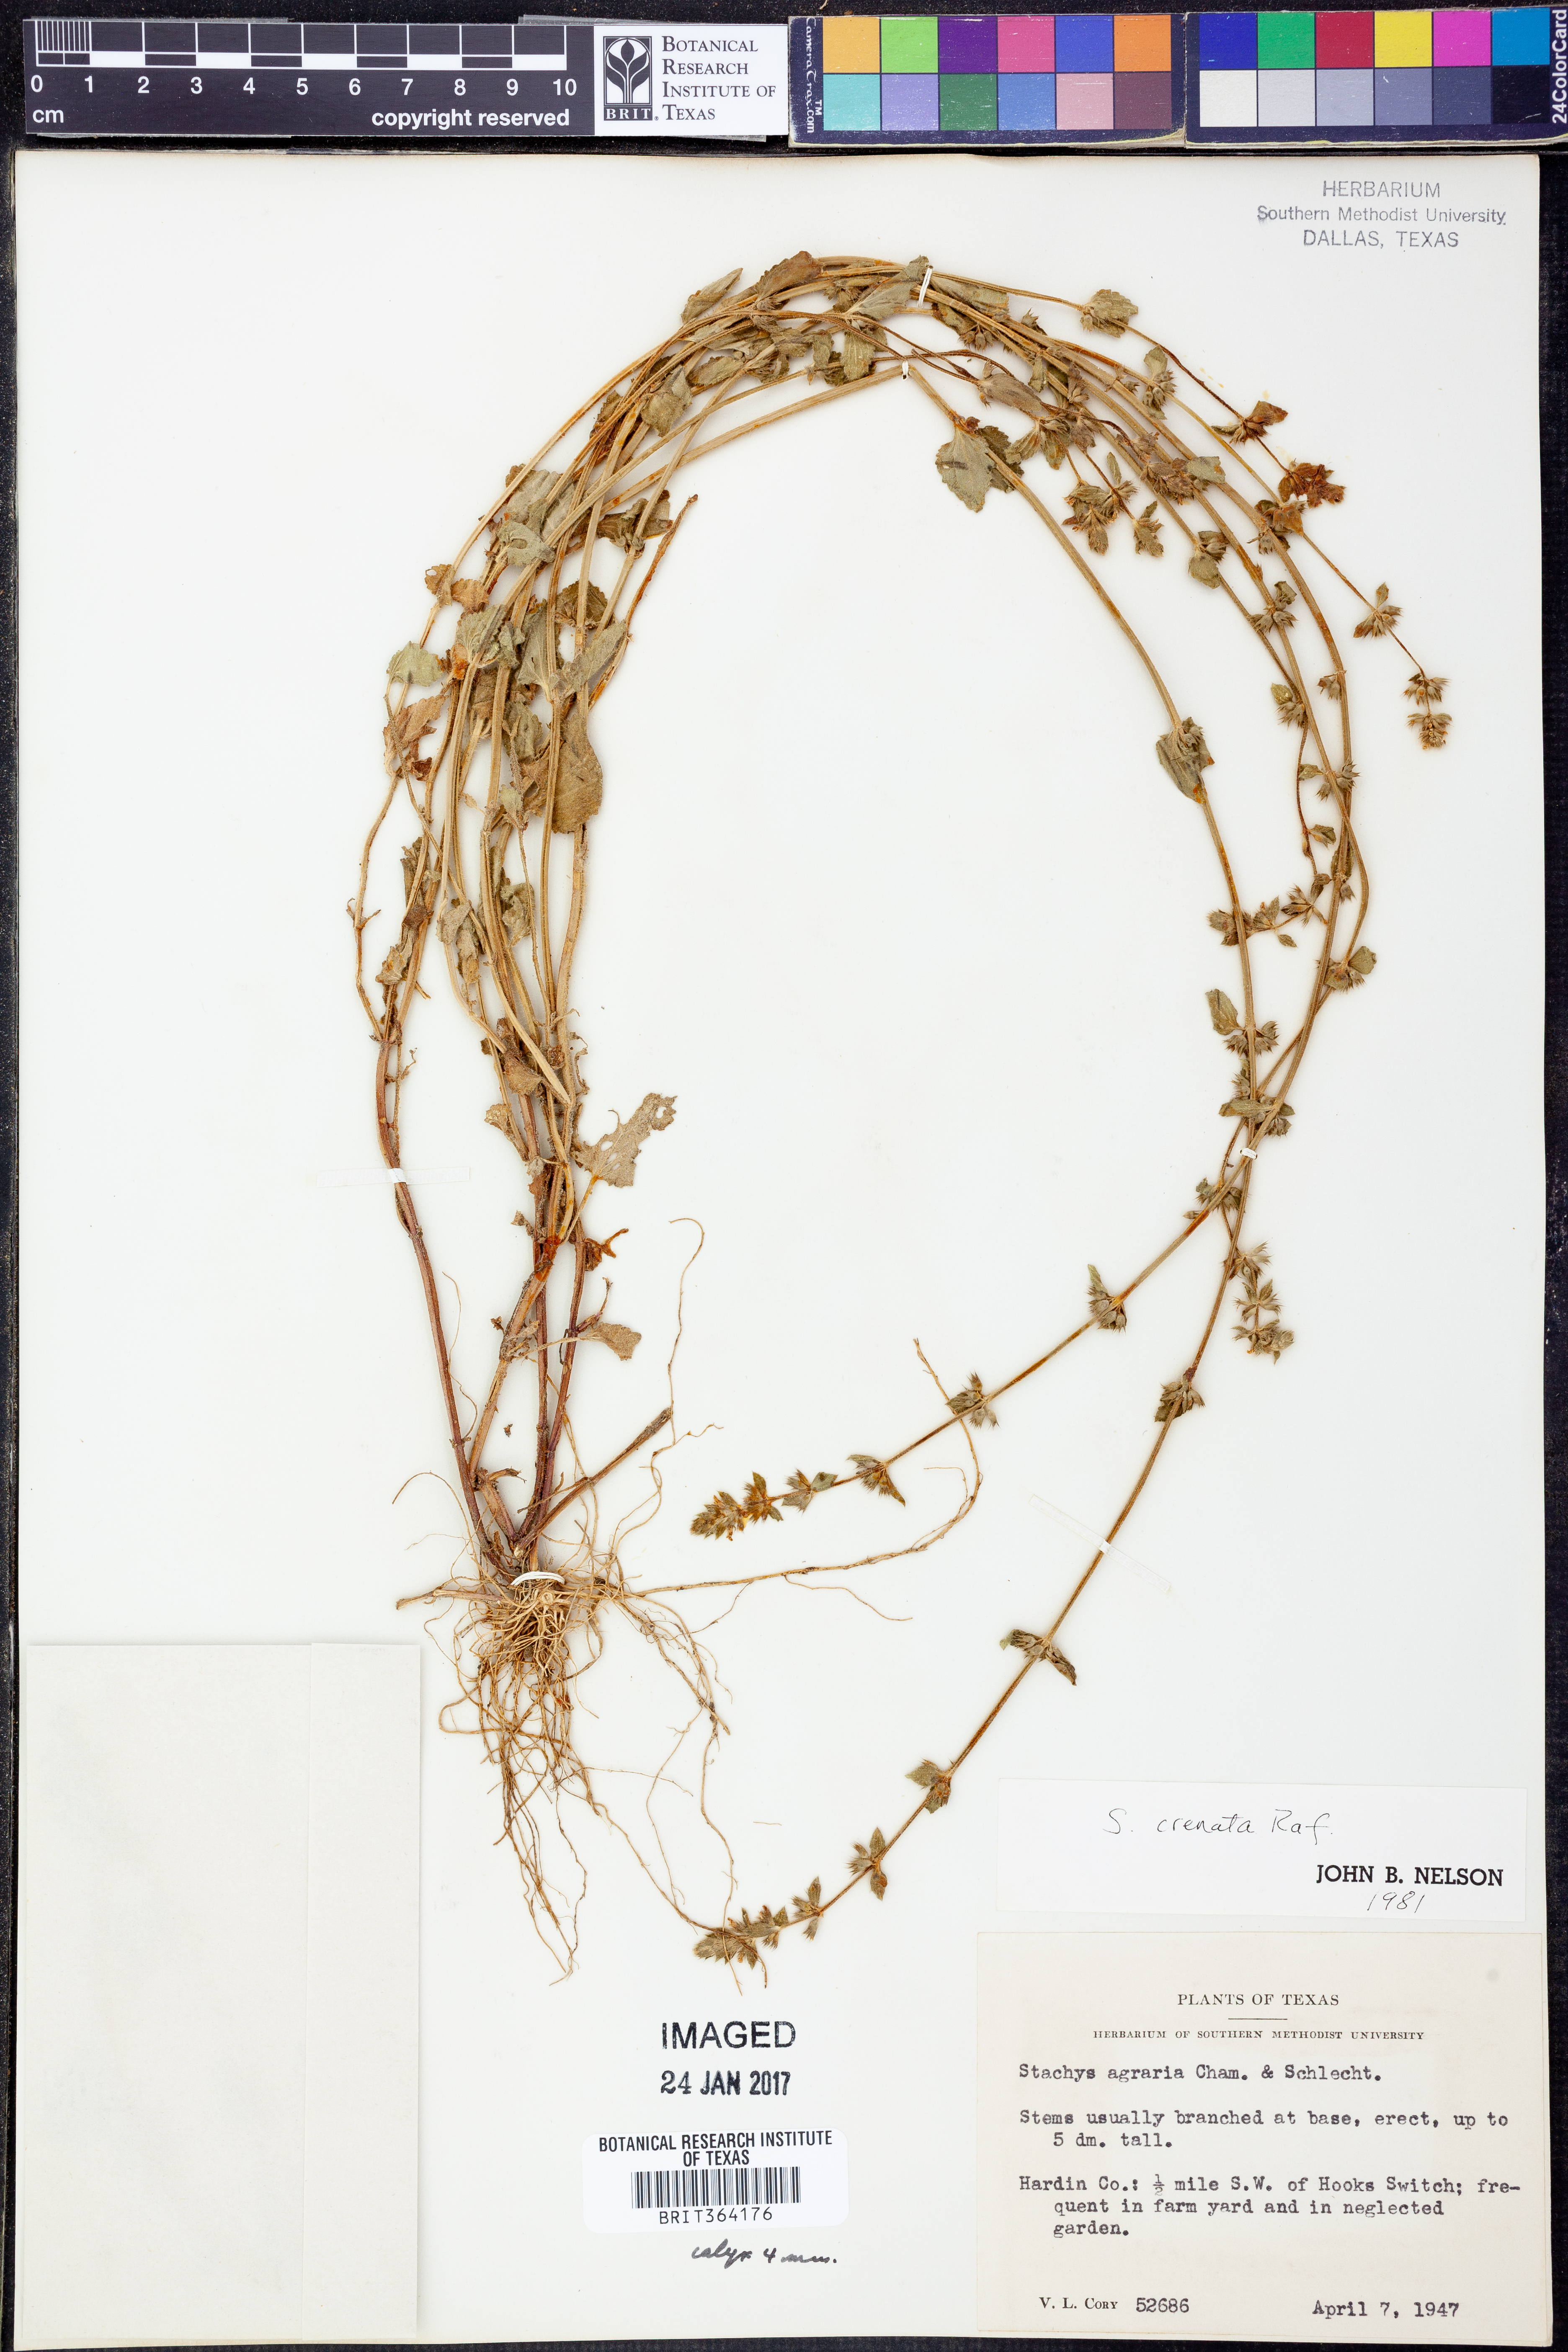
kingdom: Plantae
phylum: Tracheophyta
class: Magnoliopsida
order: Lamiales
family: Lamiaceae
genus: Stachys
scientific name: Stachys agraria
